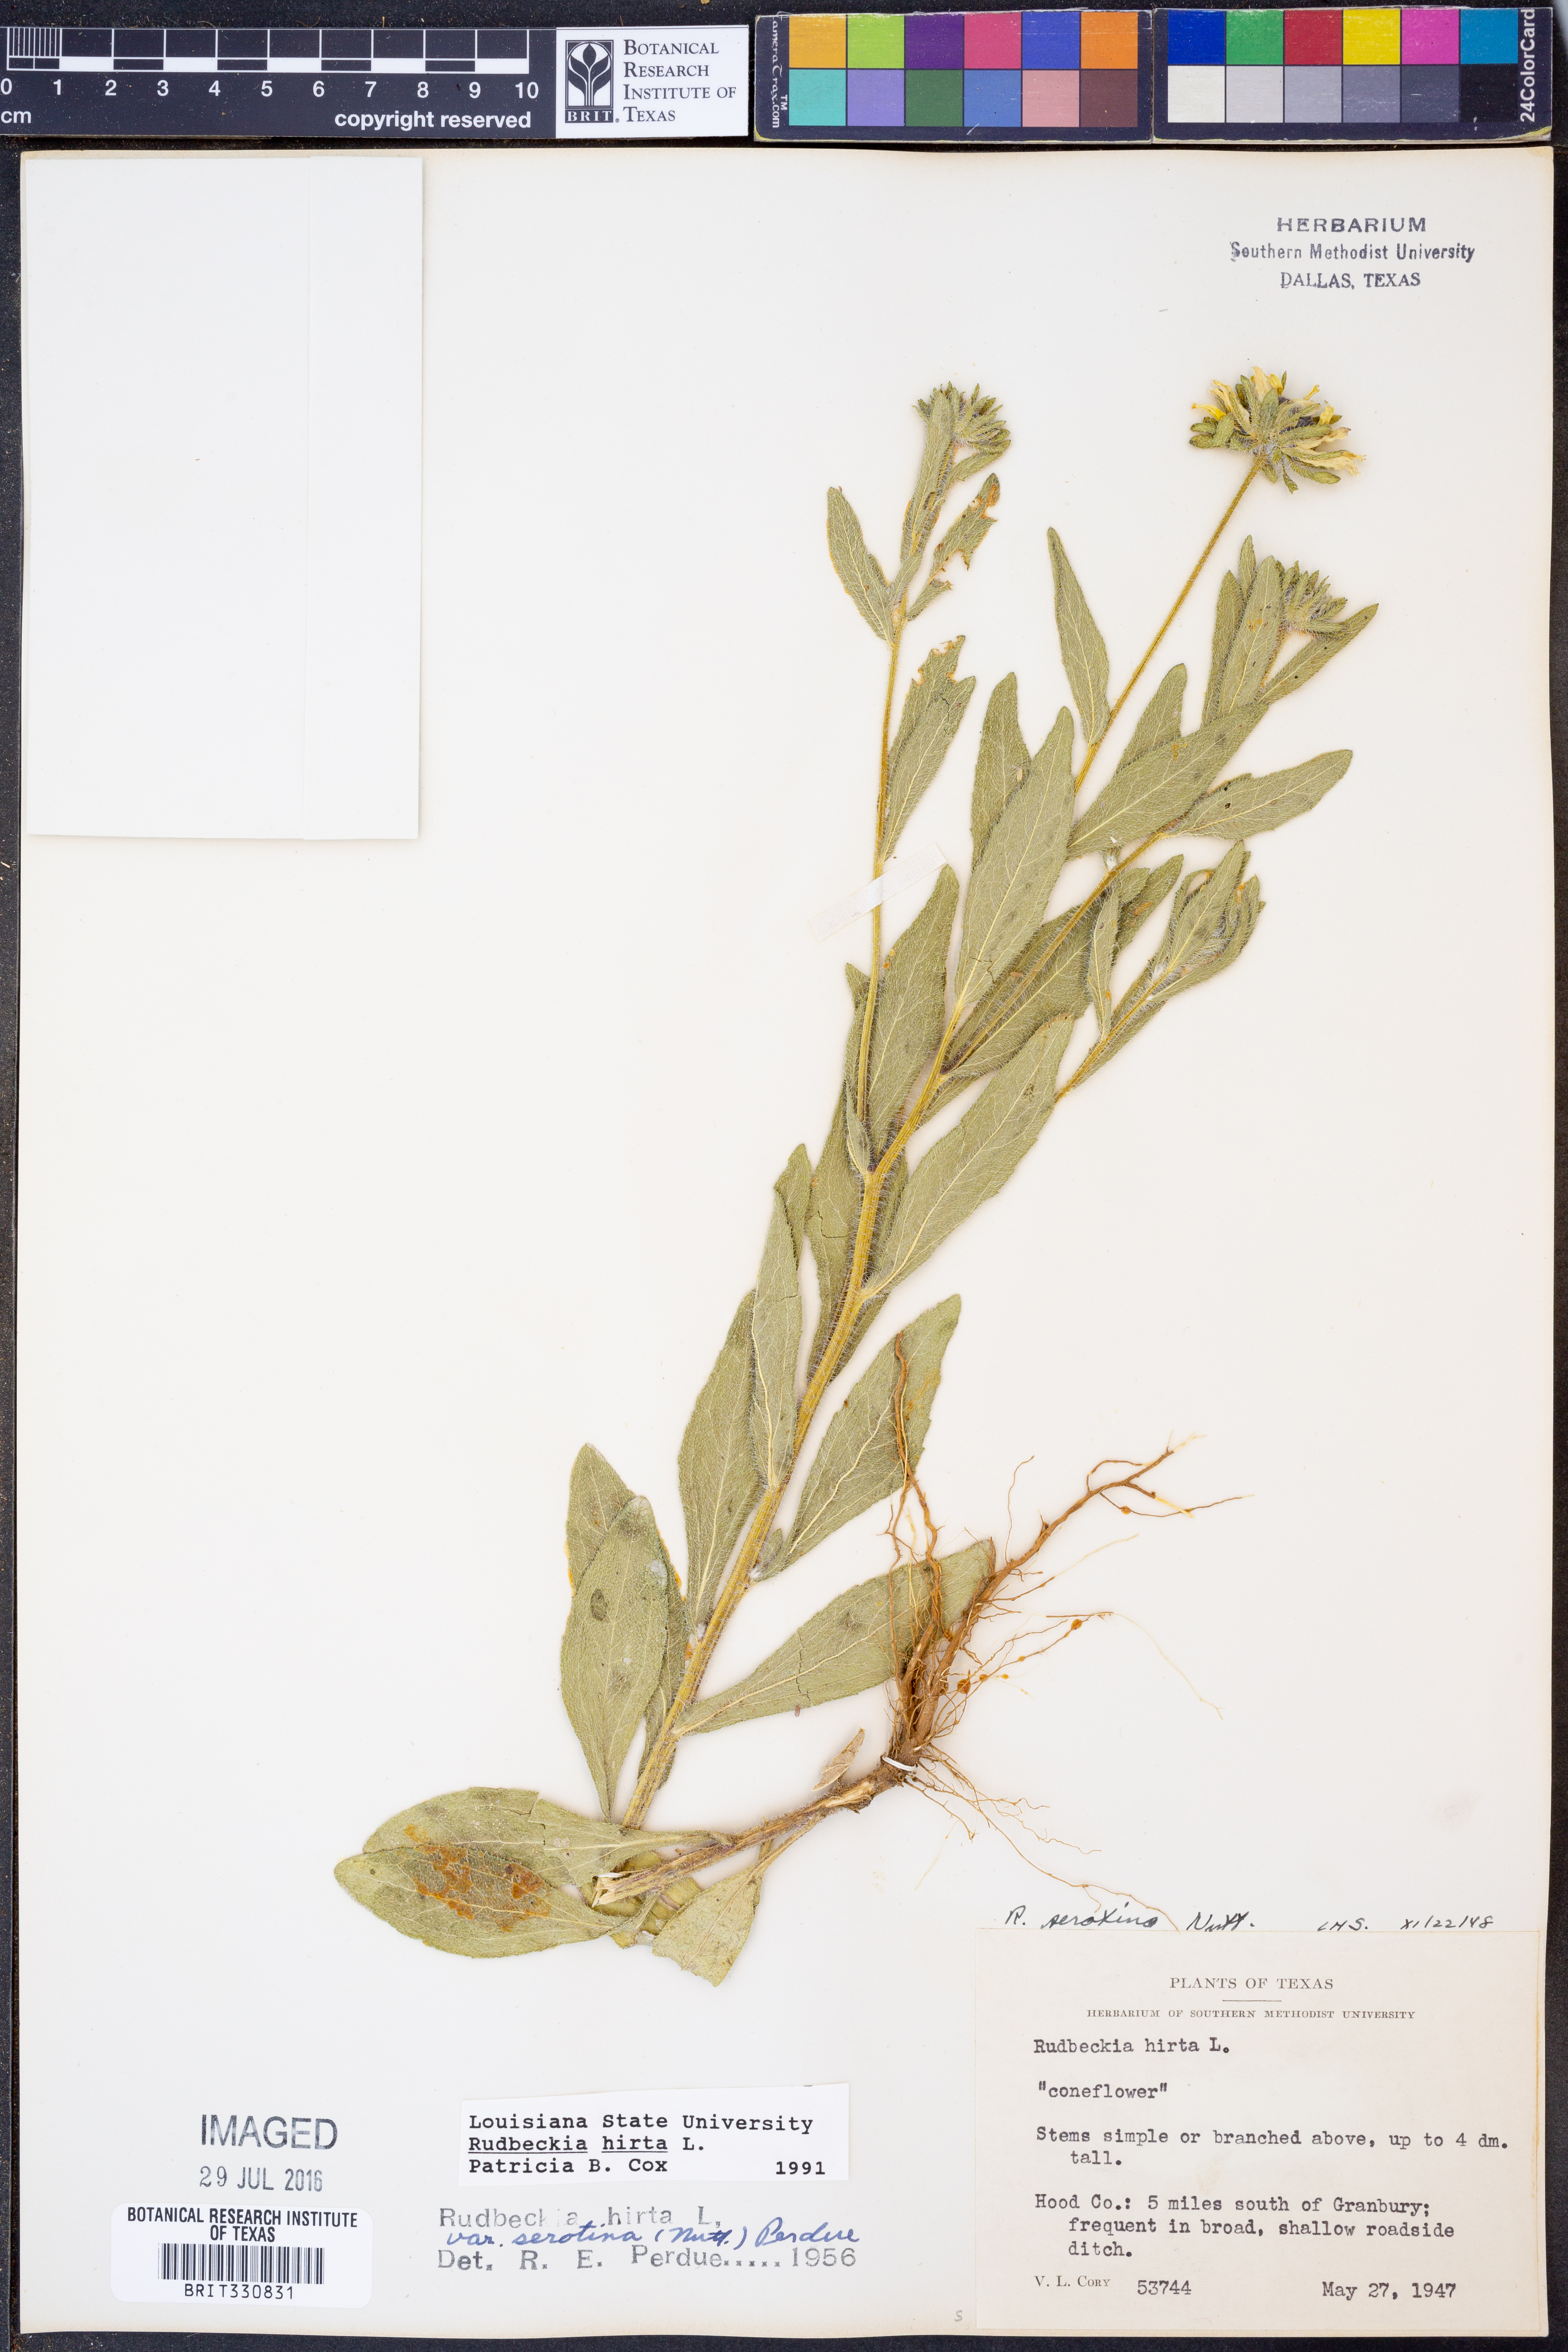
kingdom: Plantae
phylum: Tracheophyta
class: Magnoliopsida
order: Asterales
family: Asteraceae
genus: Rudbeckia
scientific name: Rudbeckia hirta
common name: Black-eyed-susan
